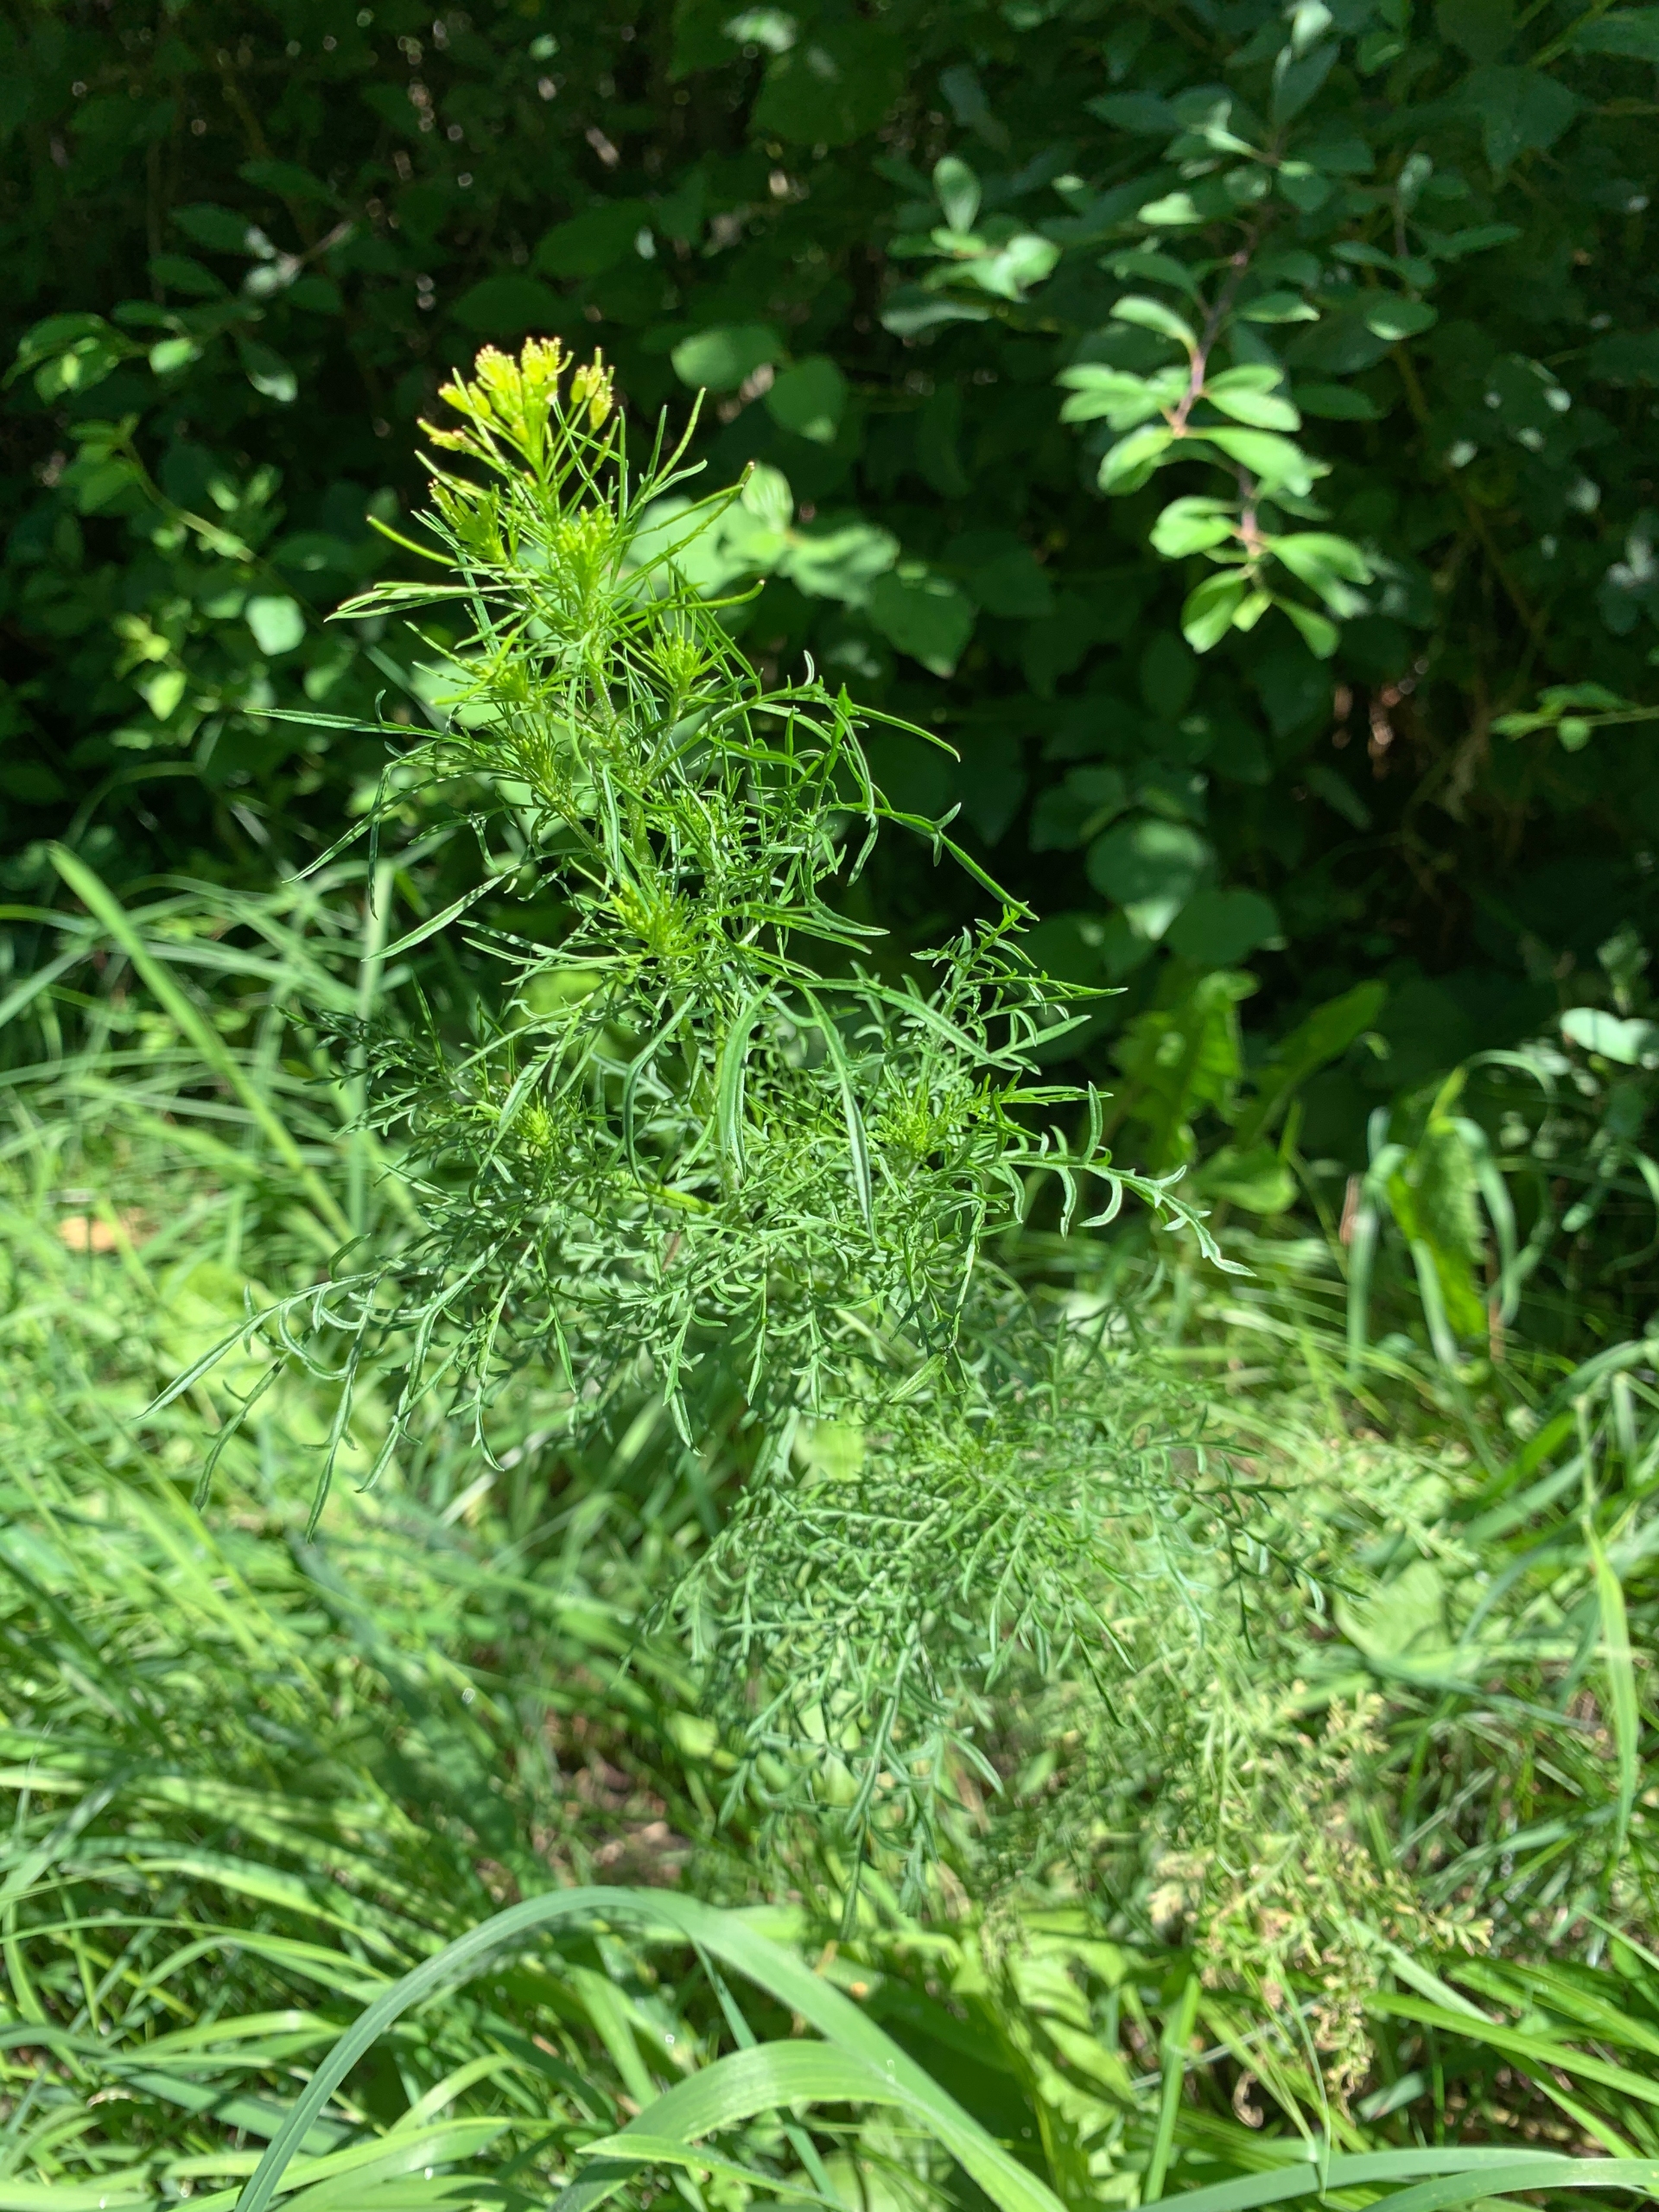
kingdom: Plantae
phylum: Tracheophyta
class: Magnoliopsida
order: Brassicales
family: Brassicaceae
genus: Descurainia
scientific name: Descurainia sophia
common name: Finbladet vejsennep
